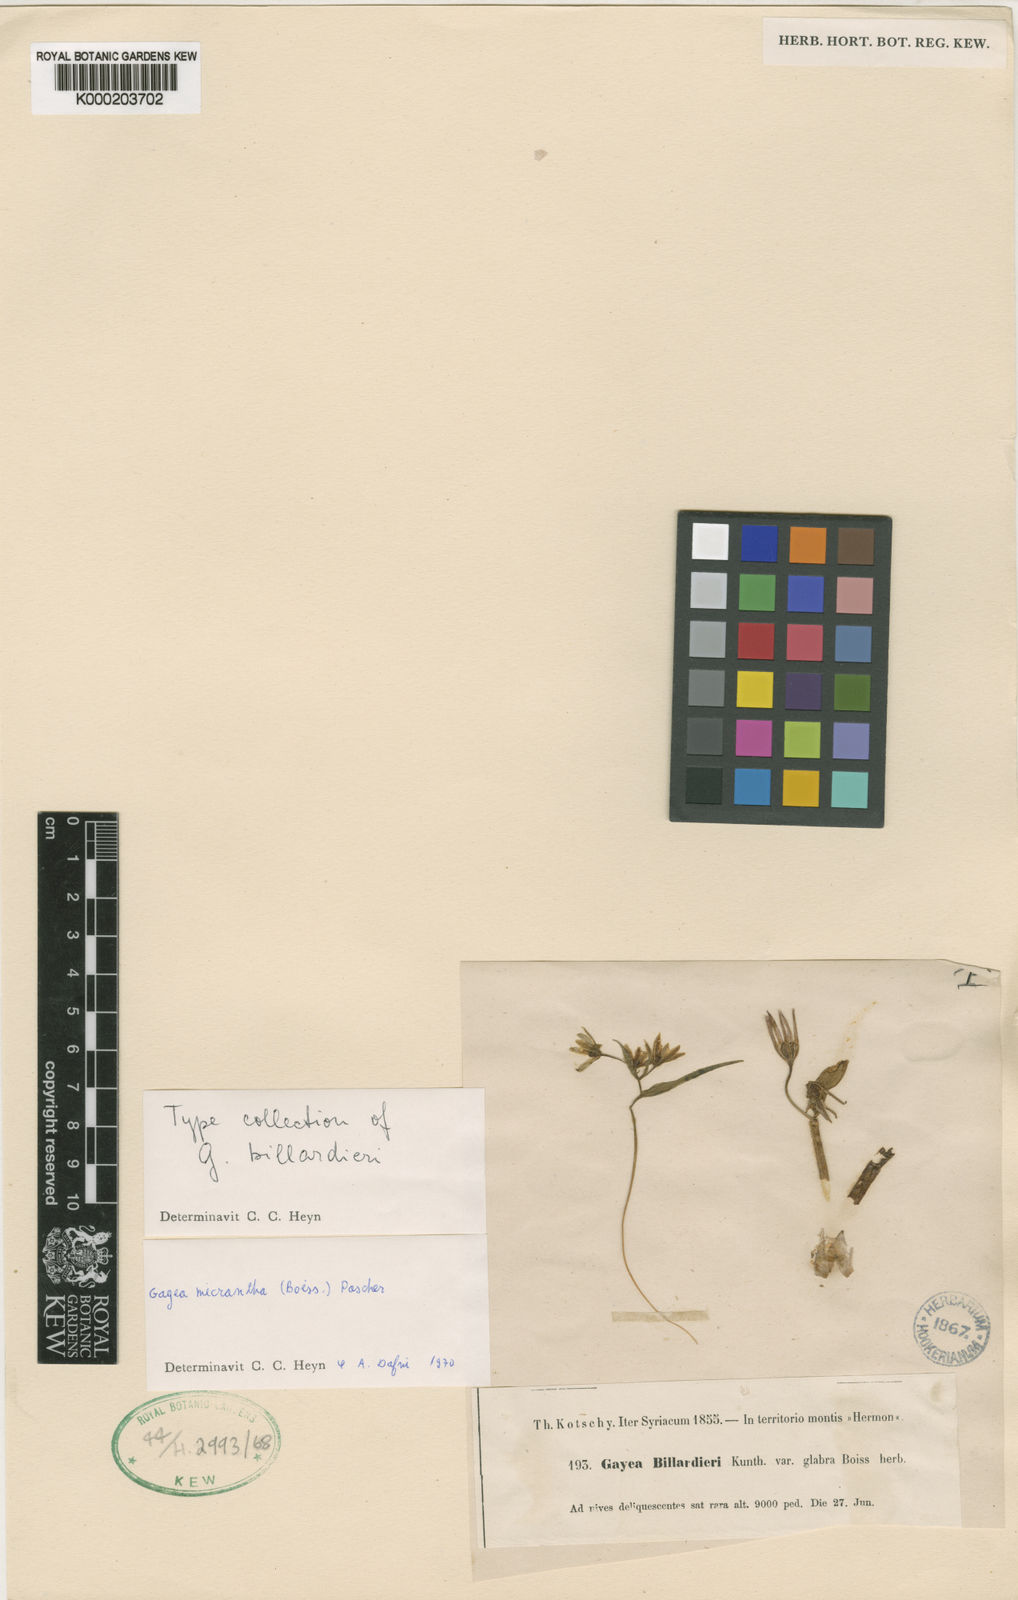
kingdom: Plantae
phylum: Tracheophyta
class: Liliopsida
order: Liliales
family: Liliaceae
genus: Gagea
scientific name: Gagea micrantha
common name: Small-flowered gagea
